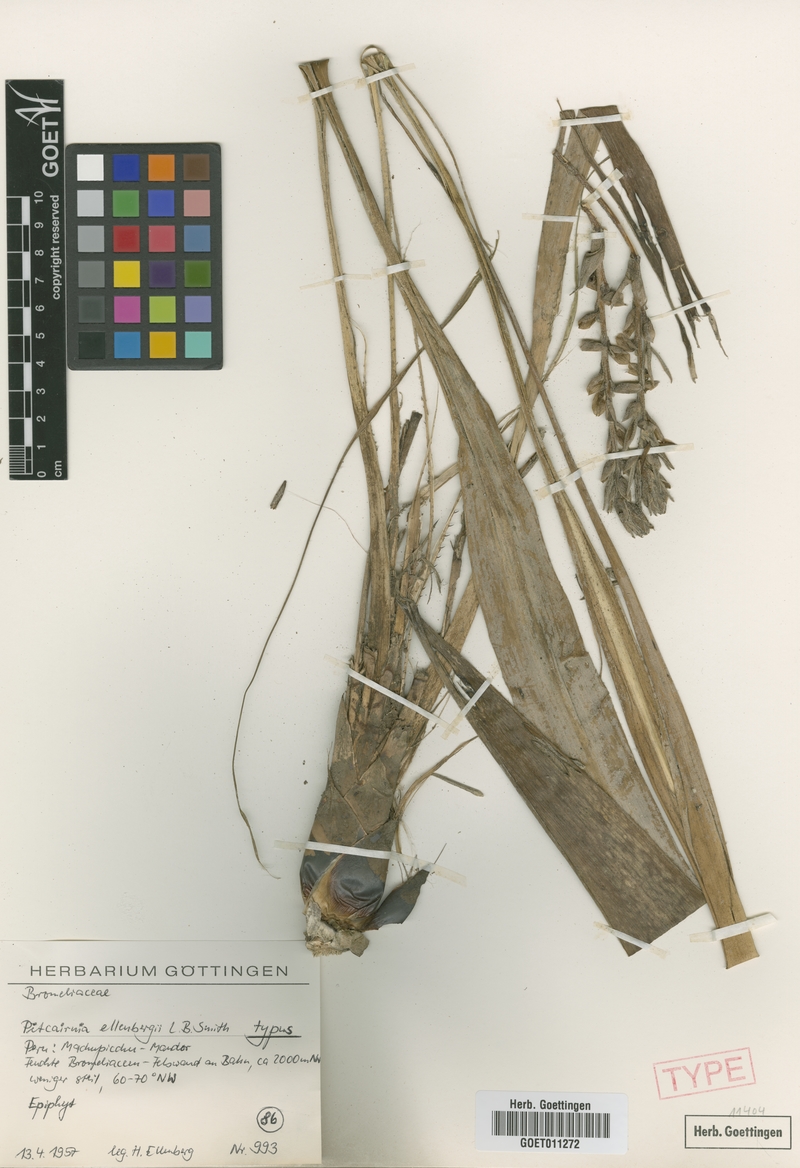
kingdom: Plantae
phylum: Tracheophyta
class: Liliopsida
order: Poales
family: Bromeliaceae
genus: Pitcairnia
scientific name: Pitcairnia ellenbergii
